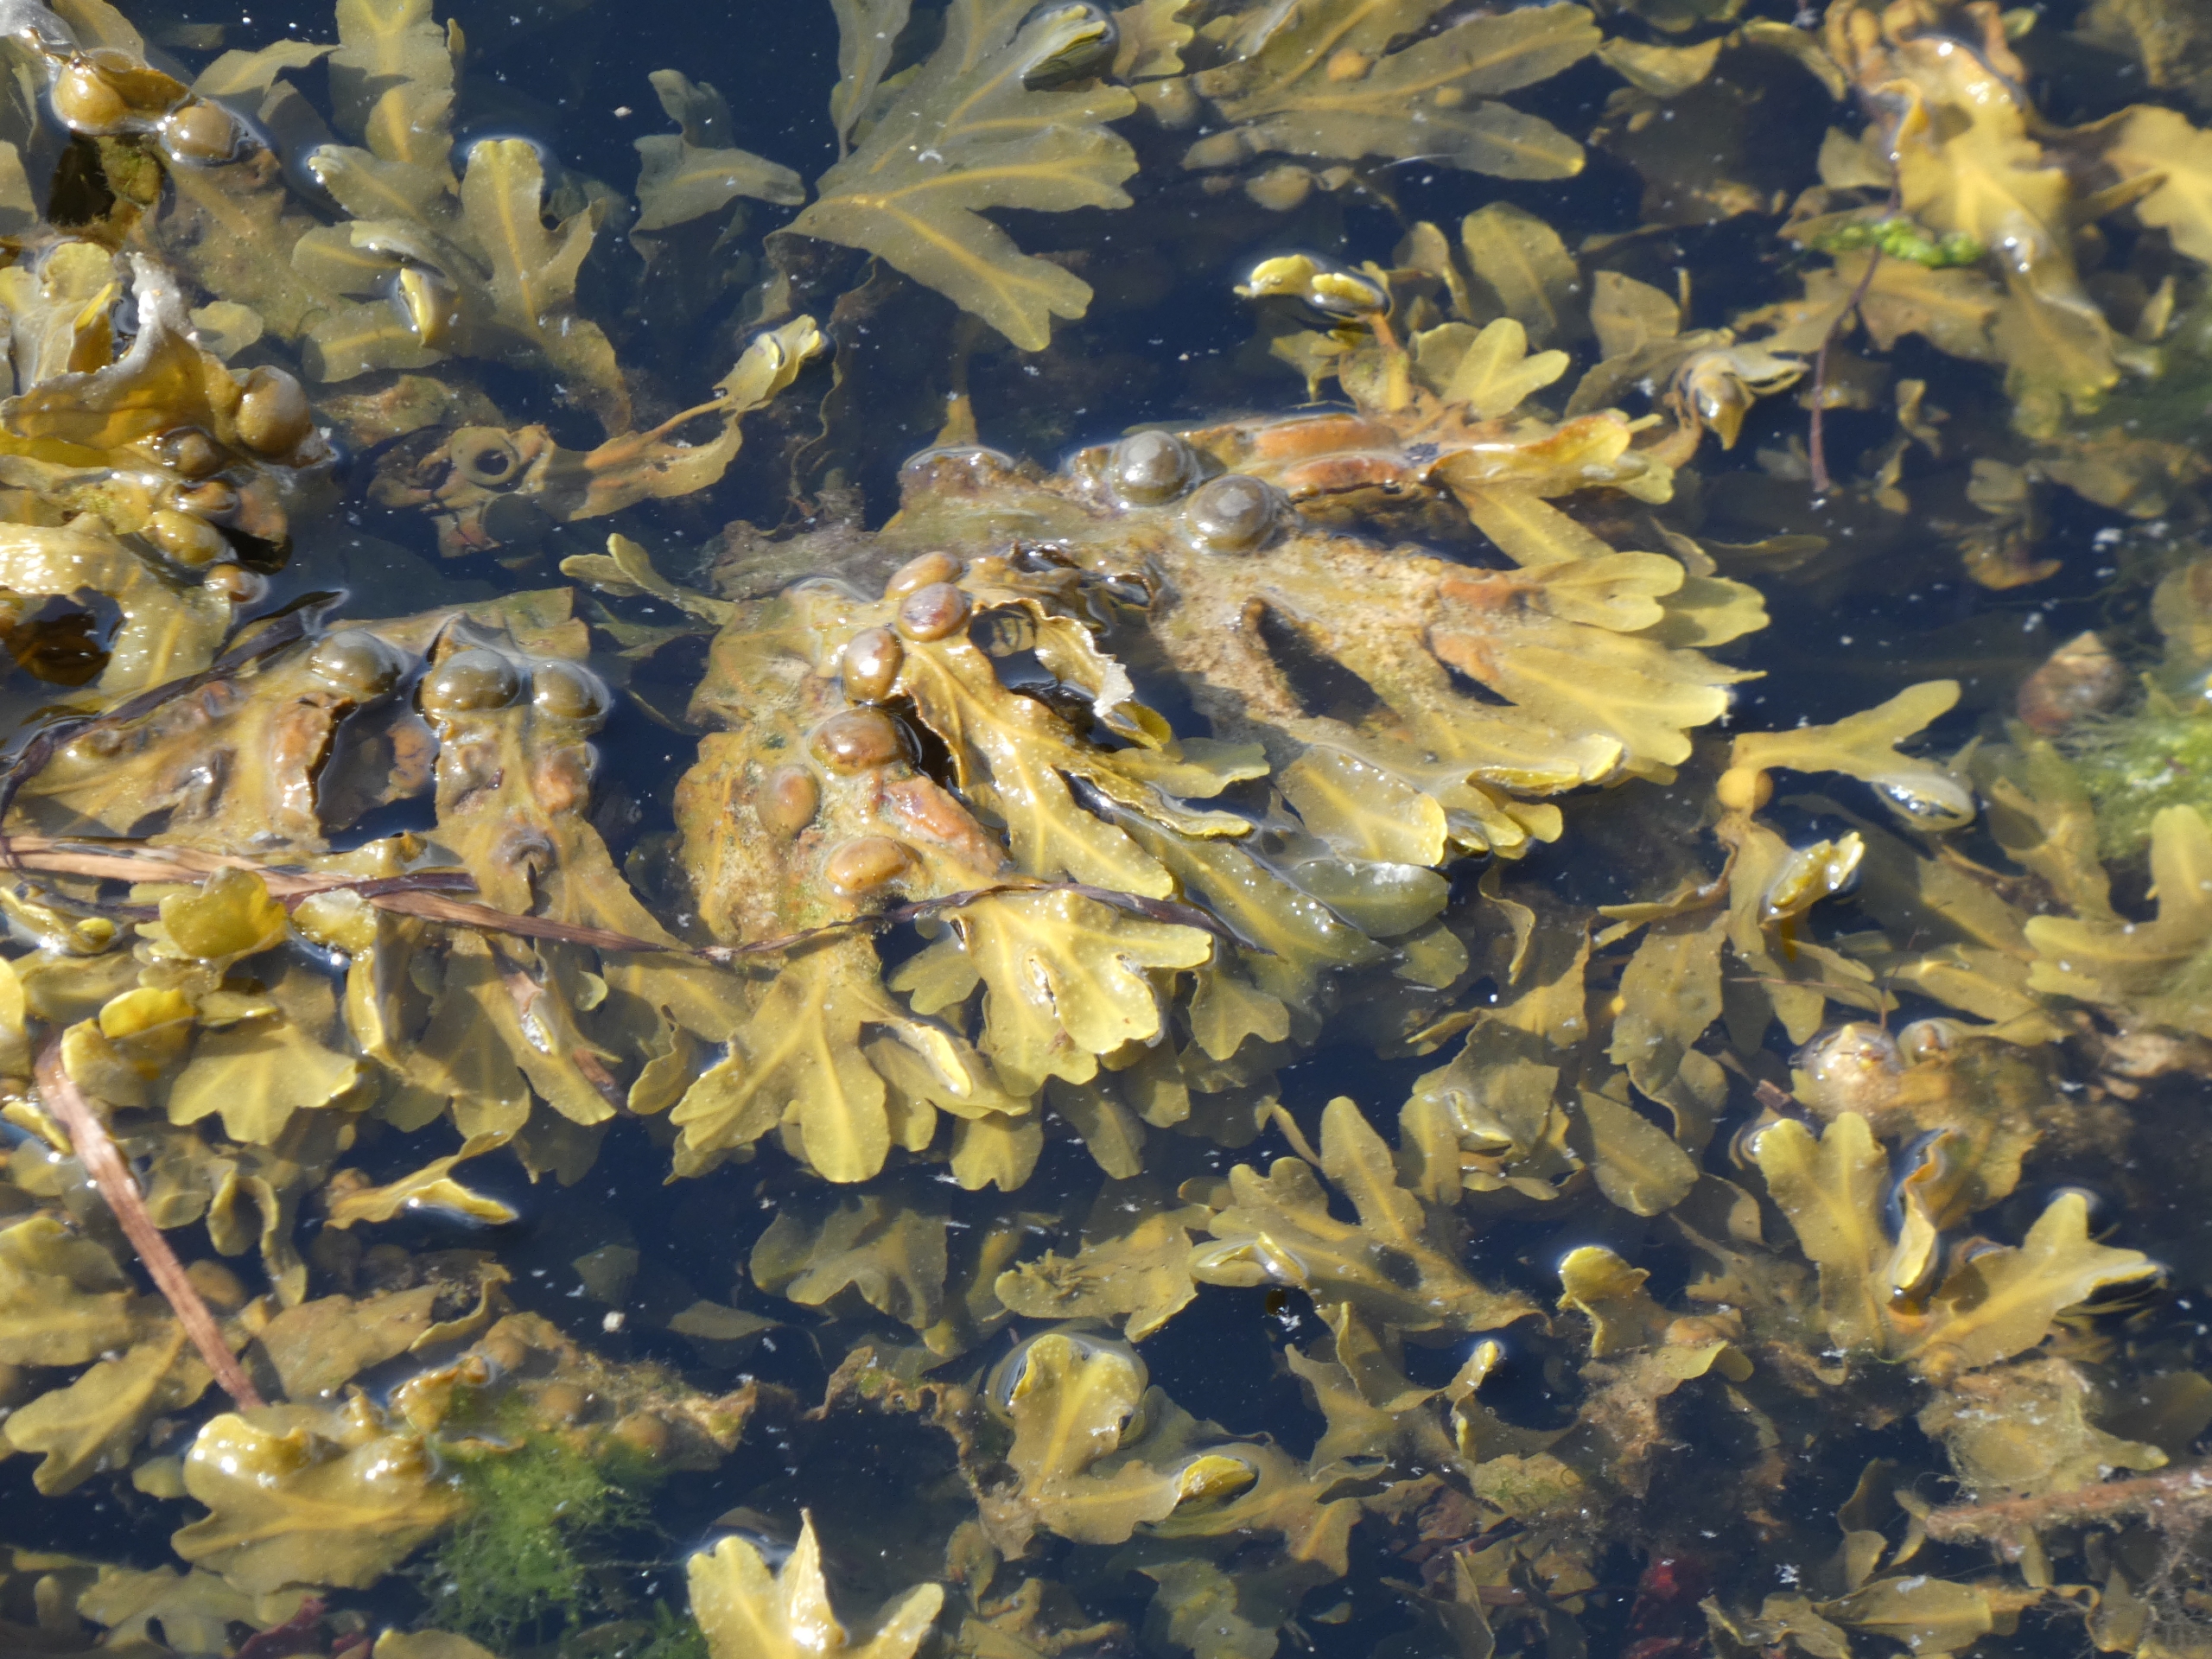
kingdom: Chromista
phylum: Ochrophyta
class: Phaeophyceae
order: Fucales
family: Fucaceae
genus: Fucus
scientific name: Fucus vesiculosus
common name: Blæretang
